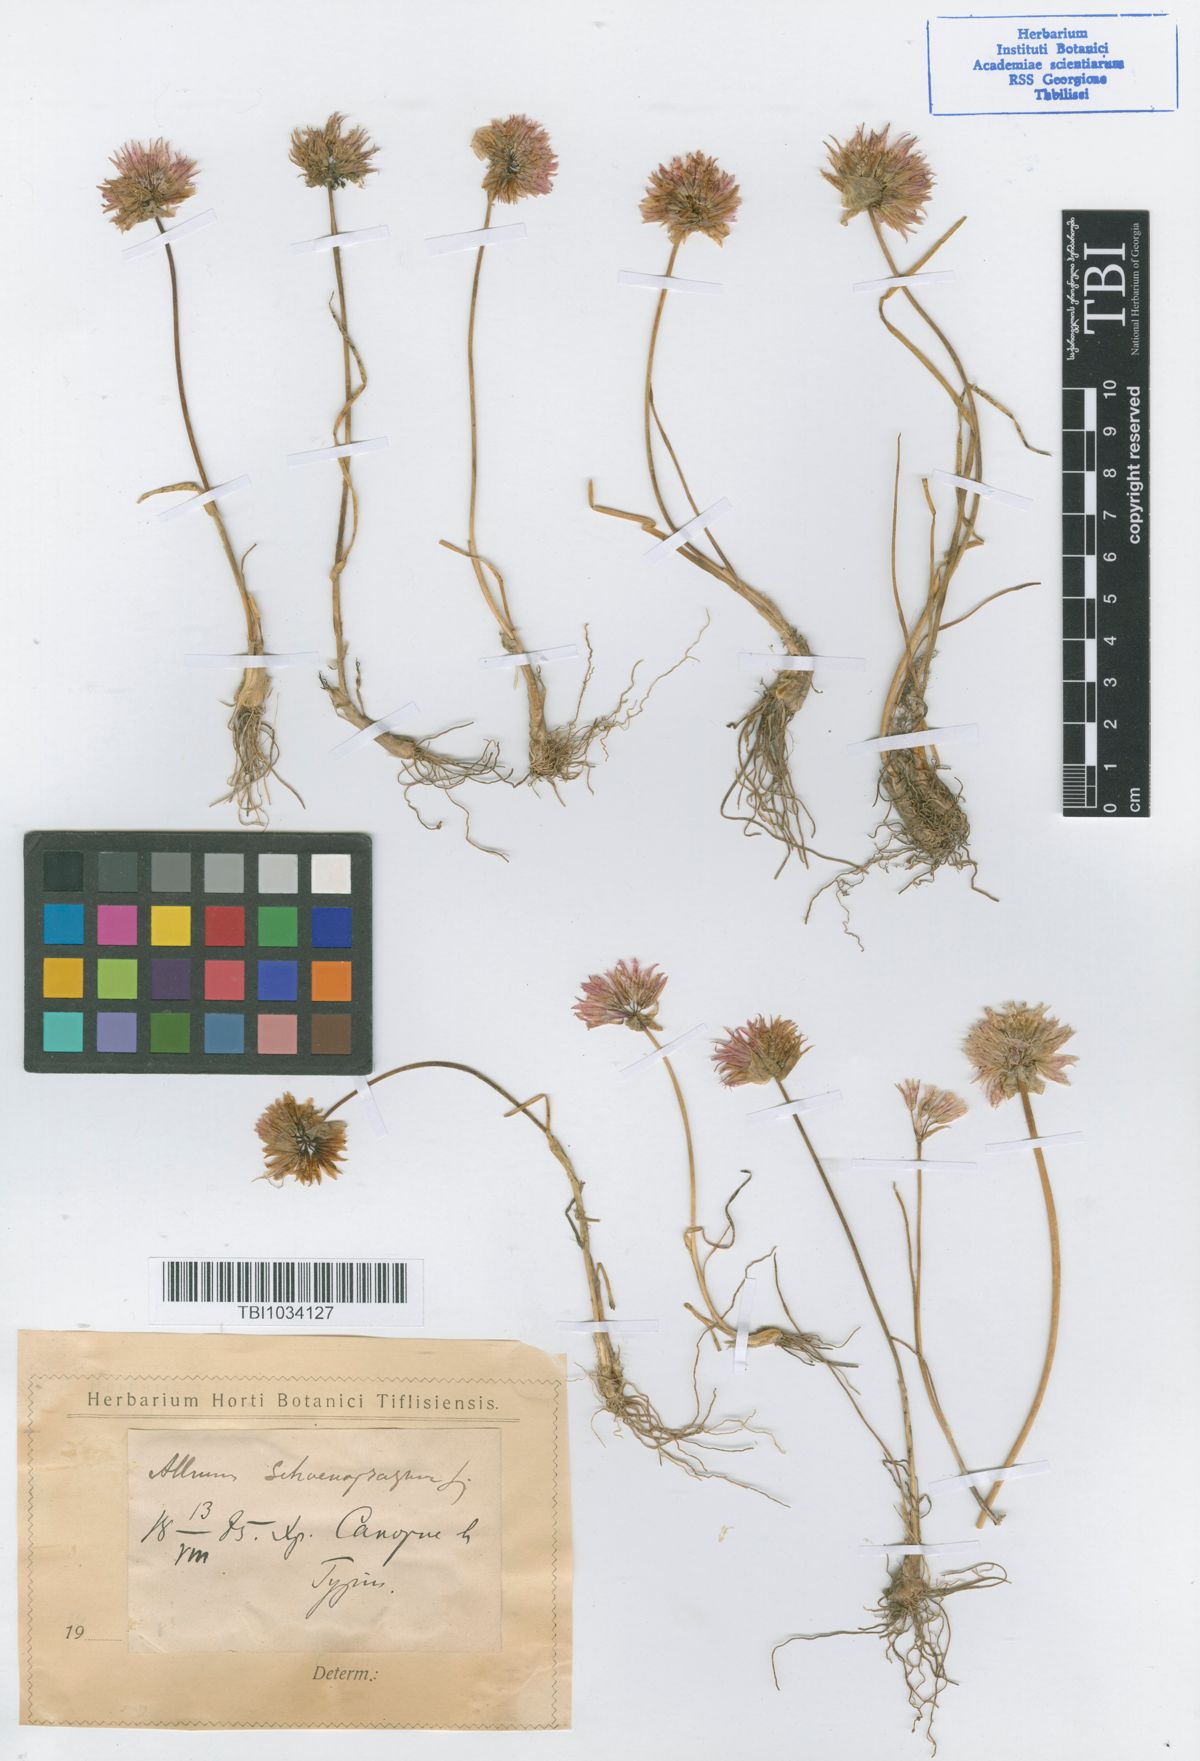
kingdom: Plantae
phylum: Tracheophyta
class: Liliopsida
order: Asparagales
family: Amaryllidaceae
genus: Allium
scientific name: Allium schoenoprasum
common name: Chives
